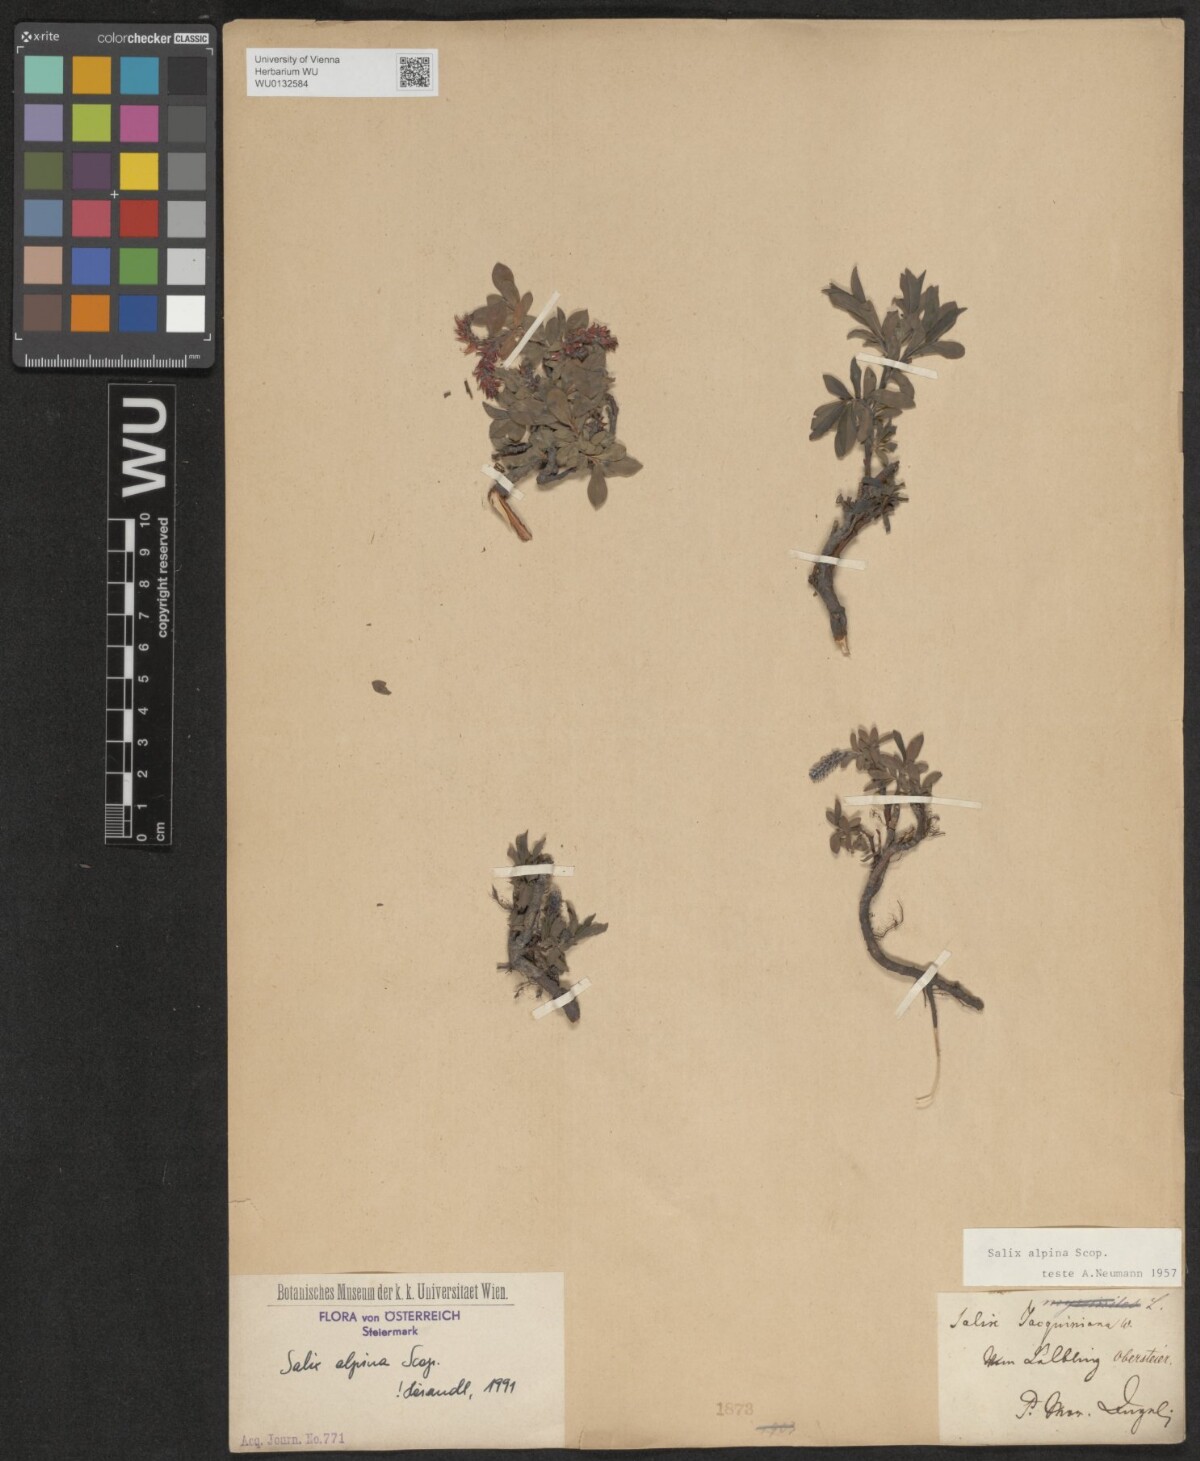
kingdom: Plantae
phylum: Tracheophyta
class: Magnoliopsida
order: Malpighiales
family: Salicaceae
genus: Salix
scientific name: Salix alpina
